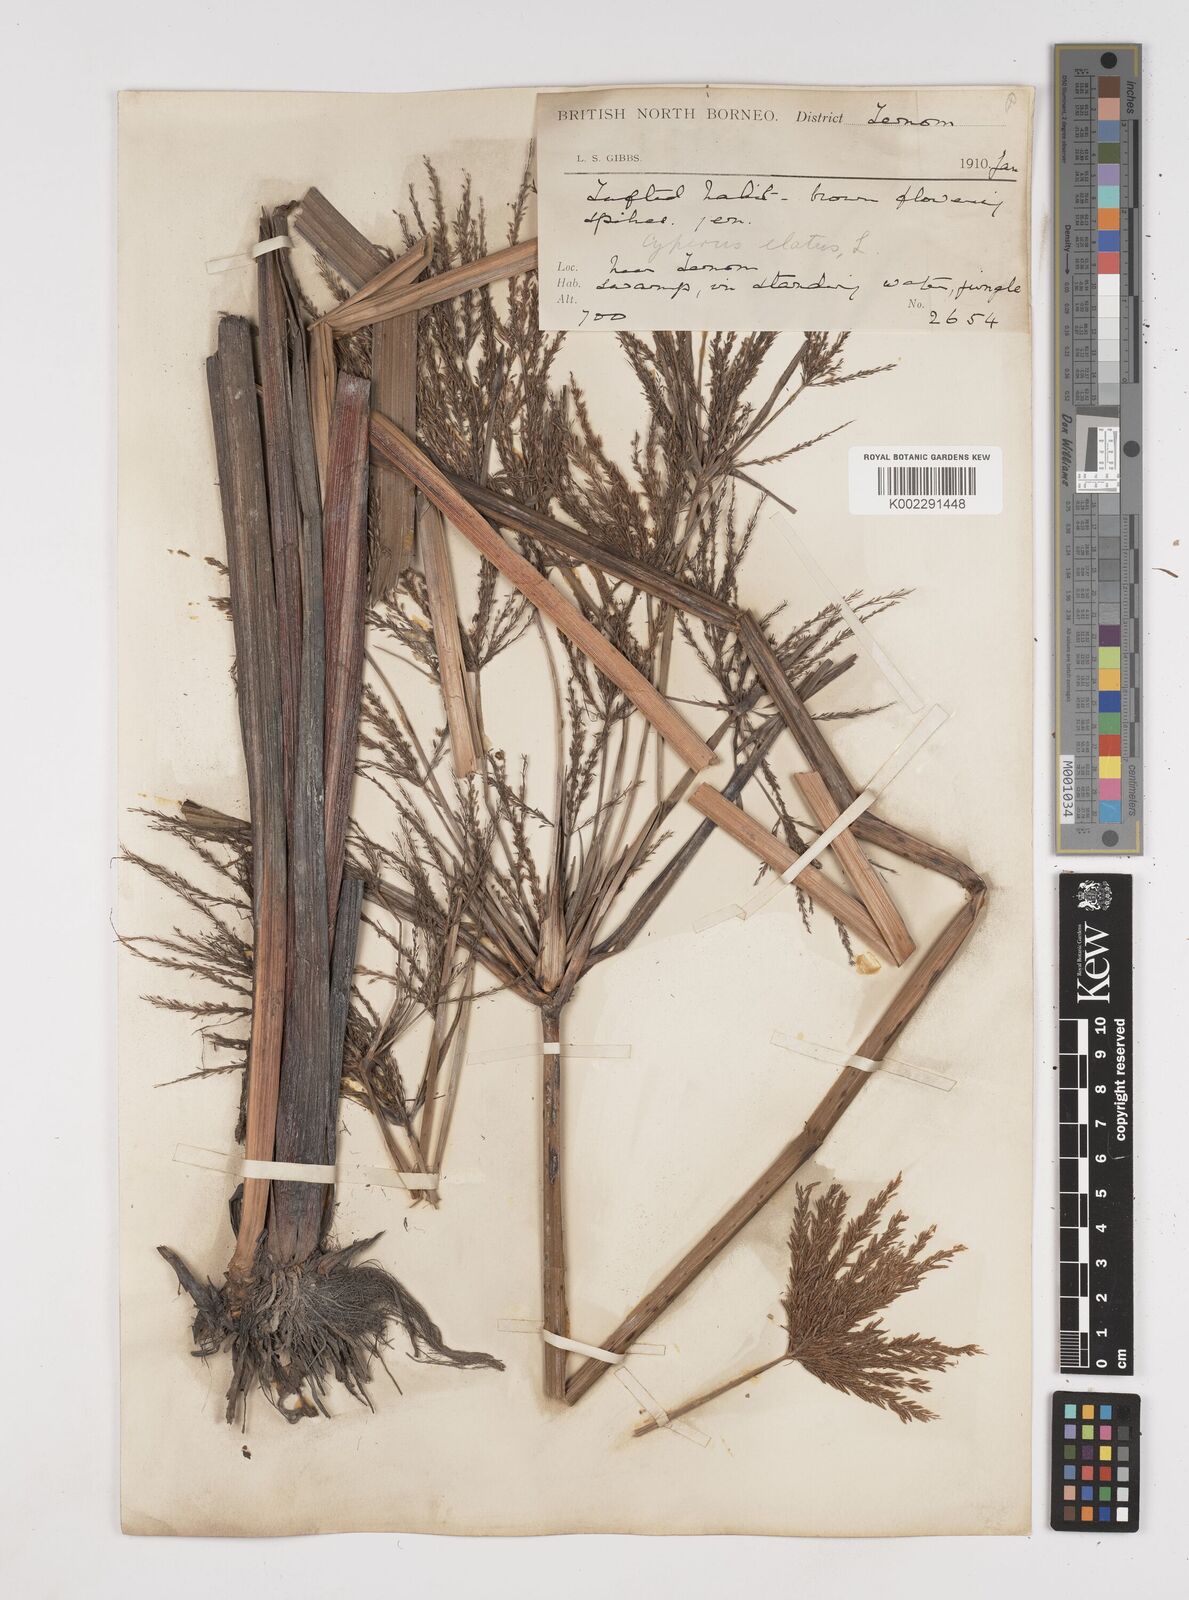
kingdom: Plantae
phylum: Tracheophyta
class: Liliopsida
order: Poales
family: Cyperaceae
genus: Cyperus
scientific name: Cyperus elatus
